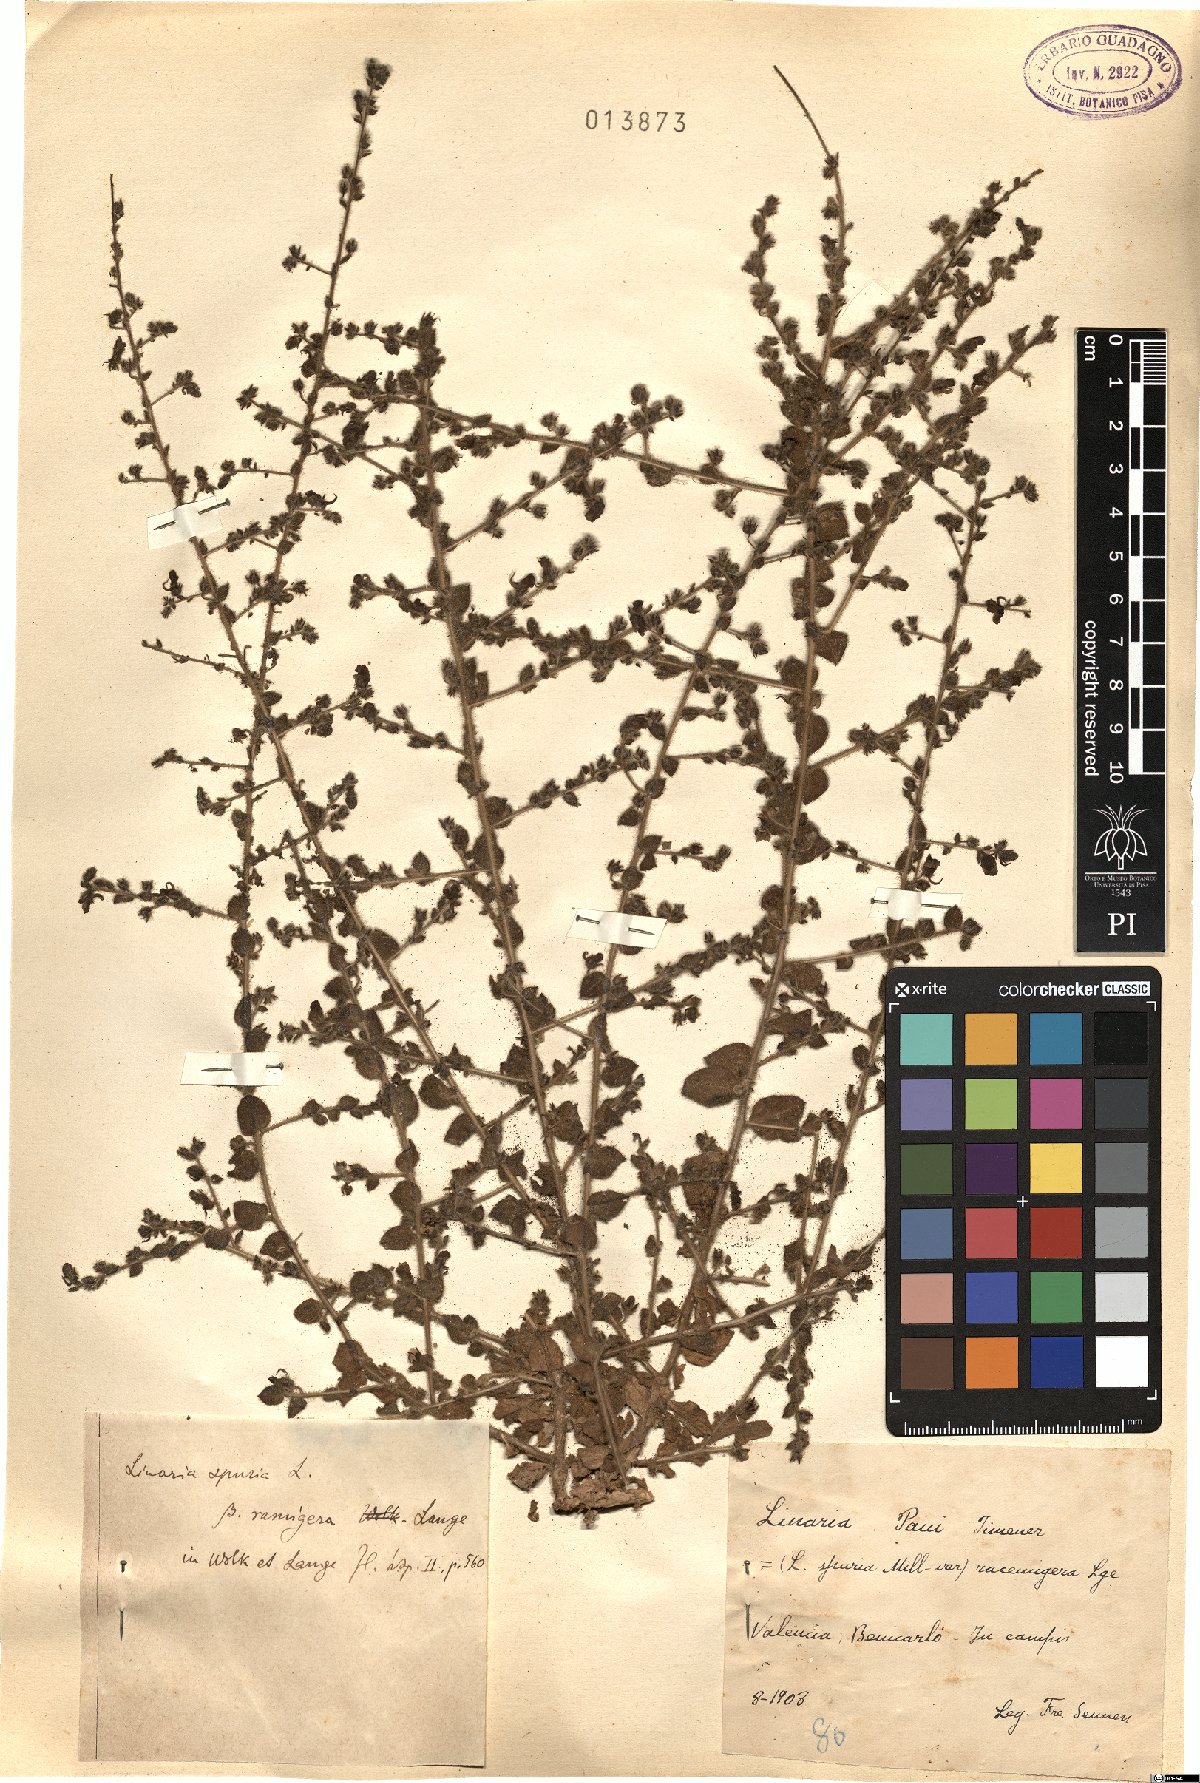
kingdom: Plantae
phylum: Tracheophyta
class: Magnoliopsida
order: Lamiales
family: Plantaginaceae
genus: Kickxia
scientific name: Kickxia spuria
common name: Round-leaved fluellen
